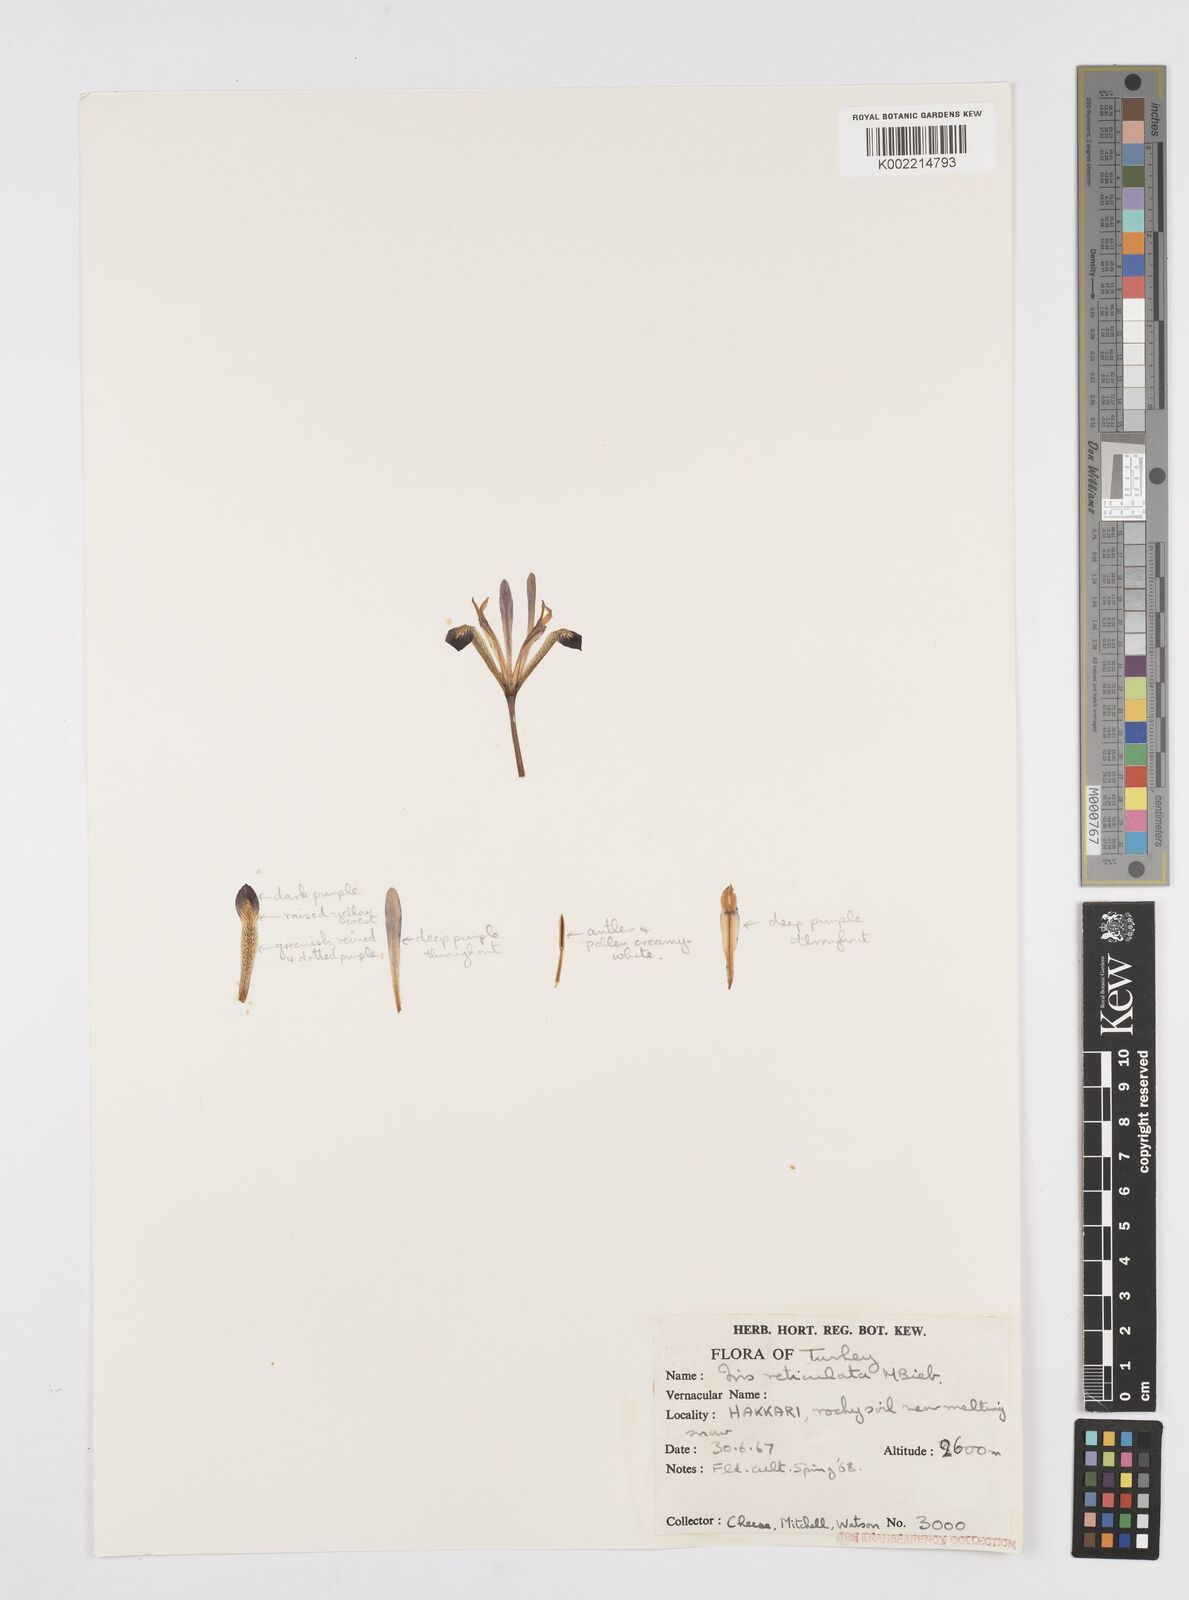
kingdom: Plantae
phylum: Tracheophyta
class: Liliopsida
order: Asparagales
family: Iridaceae
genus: Iris
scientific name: Iris reticulata
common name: Netted iris
